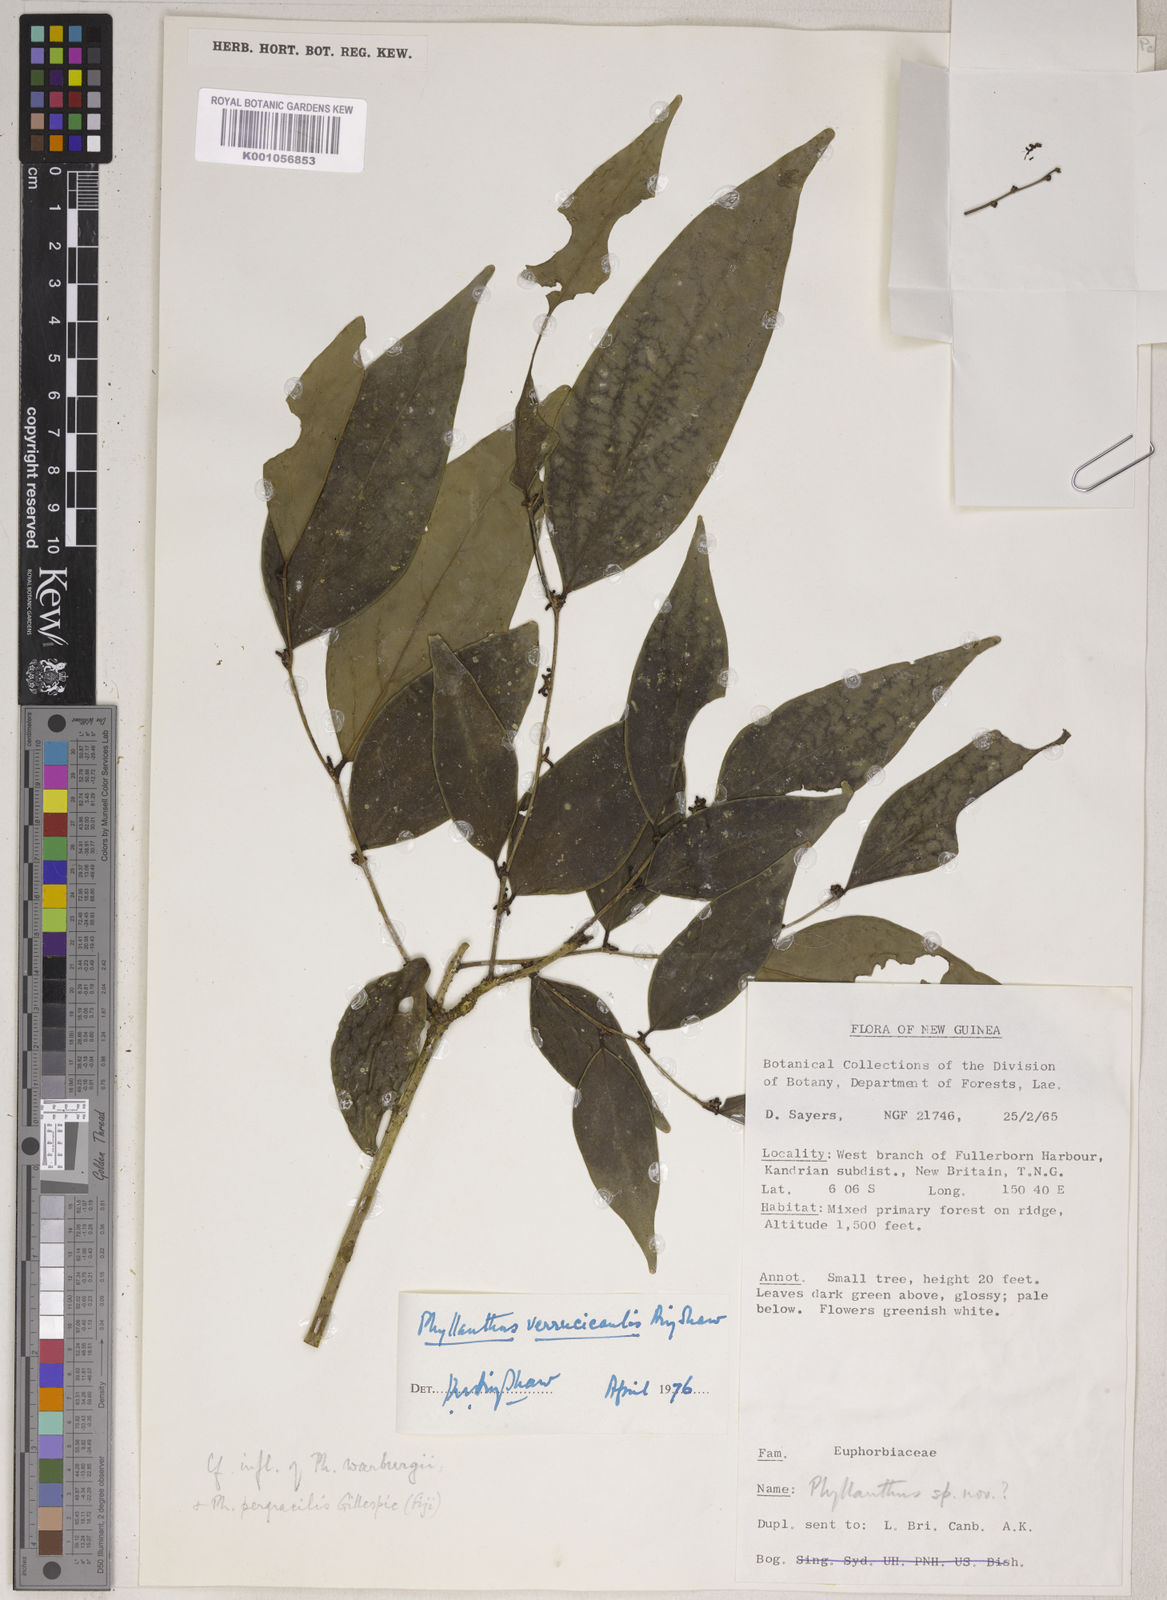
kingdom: Plantae
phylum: Tracheophyta
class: Magnoliopsida
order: Malpighiales
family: Phyllanthaceae
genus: Phyllanthus
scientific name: Phyllanthus verrucicaulis
